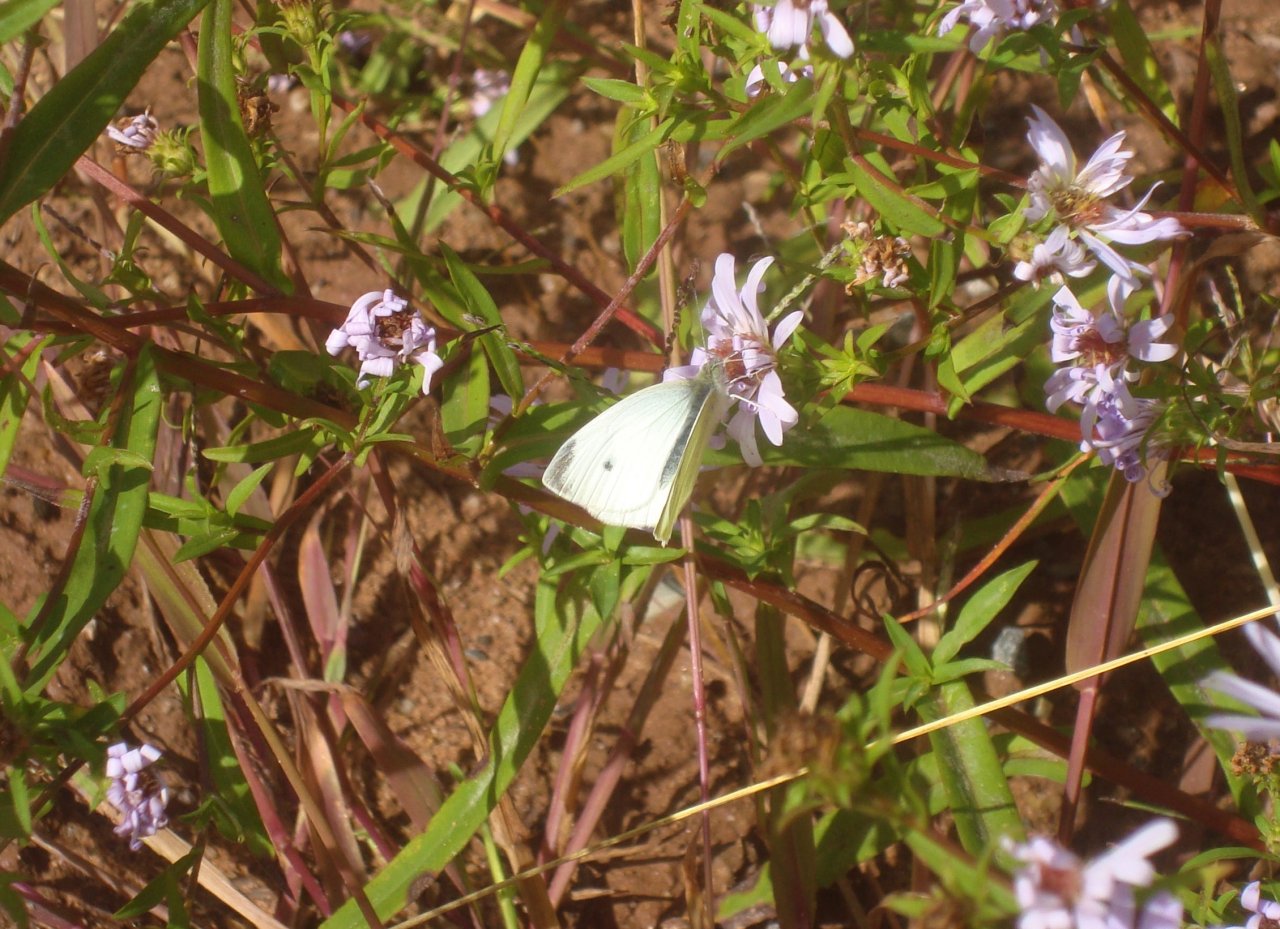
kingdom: Animalia
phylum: Arthropoda
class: Insecta
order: Lepidoptera
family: Pieridae
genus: Pieris
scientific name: Pieris rapae
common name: Cabbage White
